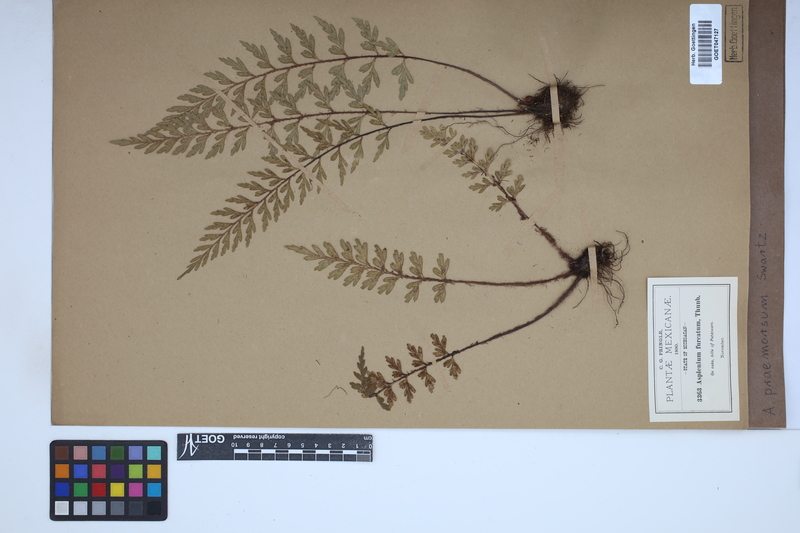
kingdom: Plantae
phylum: Tracheophyta
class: Polypodiopsida
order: Polypodiales
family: Aspleniaceae
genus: Asplenium
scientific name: Asplenium praemorsum
